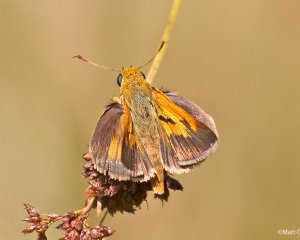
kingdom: Animalia
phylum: Arthropoda
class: Insecta
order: Lepidoptera
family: Hesperiidae
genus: Euphyes
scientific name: Euphyes berryi
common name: Berry's Skipper
